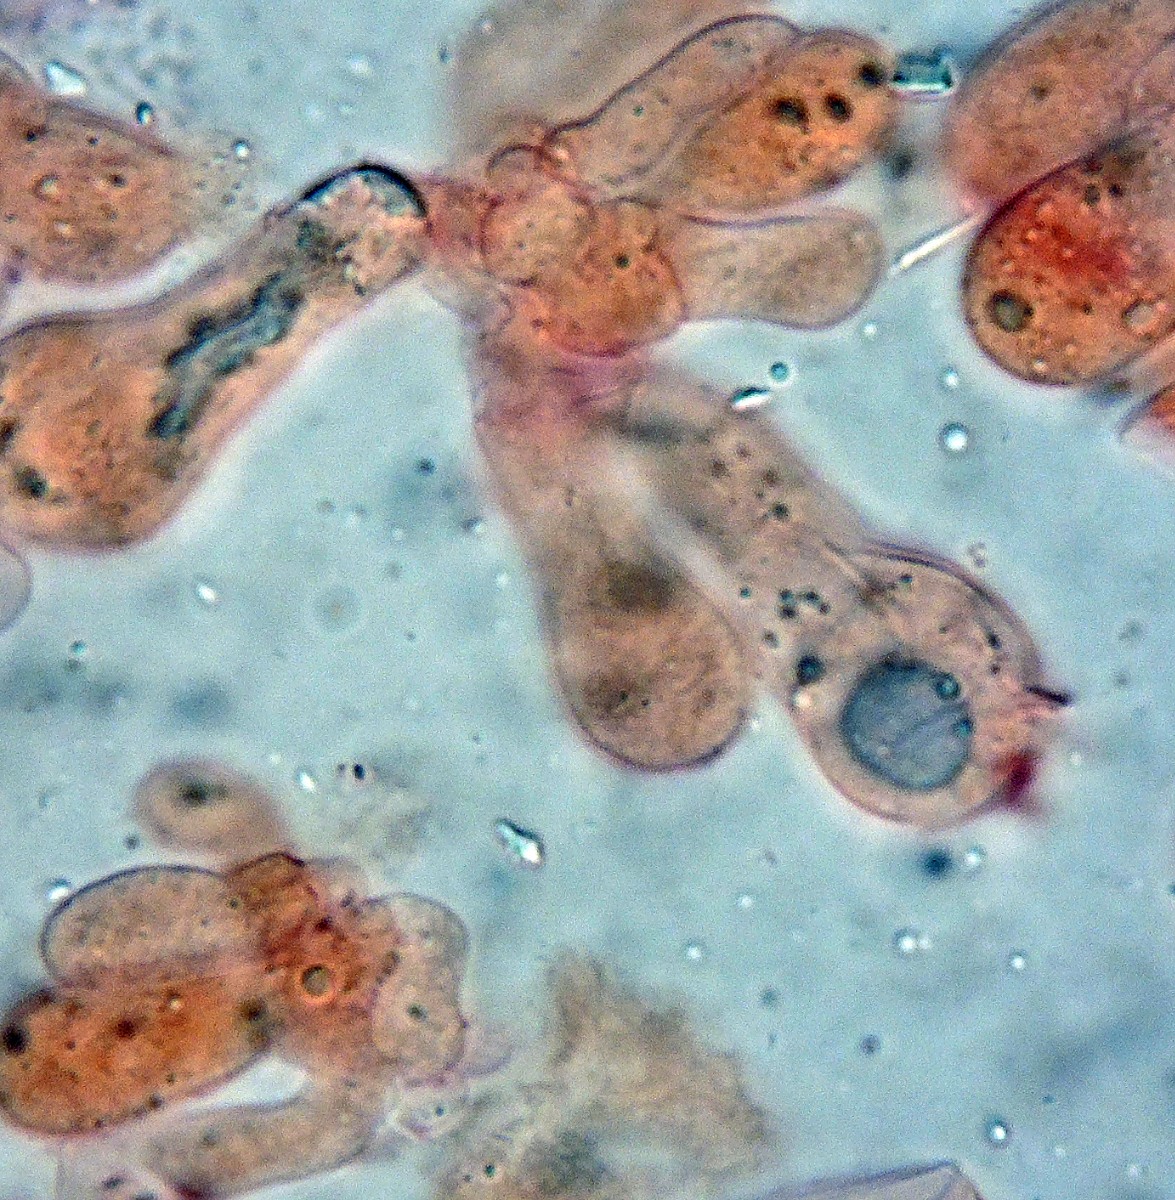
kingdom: Fungi
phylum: Basidiomycota
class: Agaricomycetes
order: Agaricales
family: Entolomataceae
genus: Entoloma
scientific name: Entoloma
